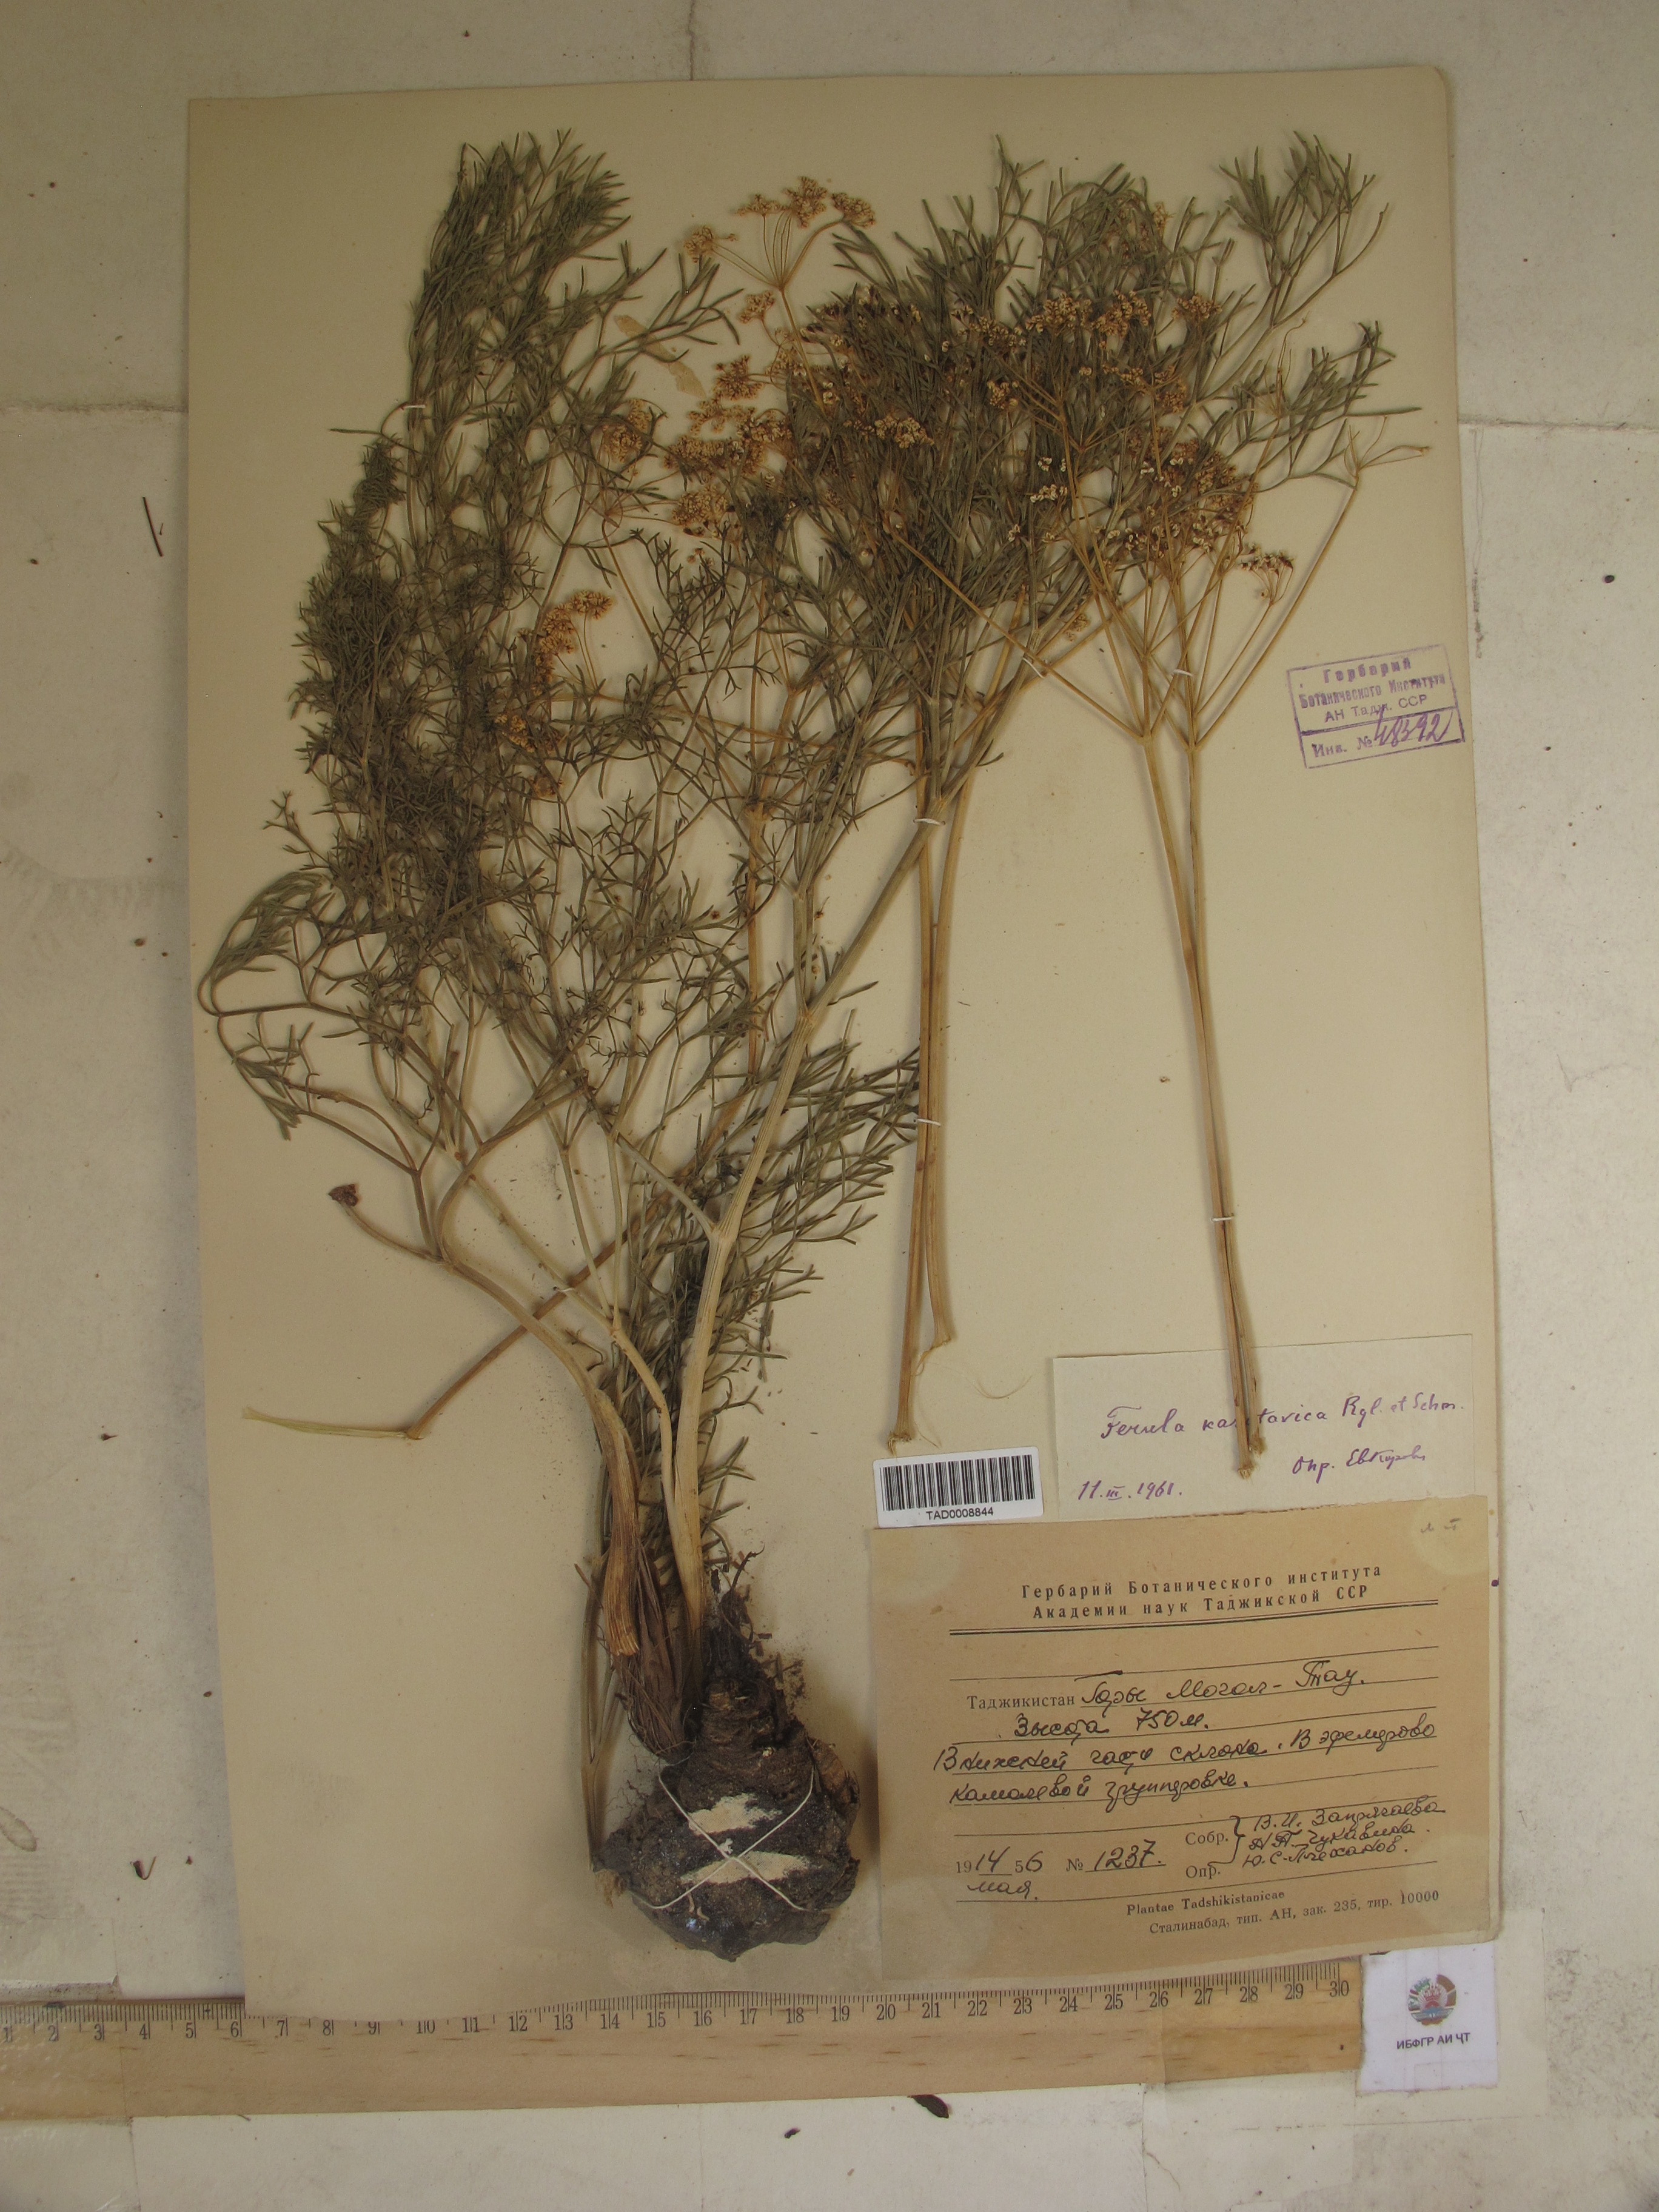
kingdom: Plantae
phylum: Tracheophyta
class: Magnoliopsida
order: Apiales
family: Apiaceae
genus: Ferula
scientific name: Ferula karatavica
